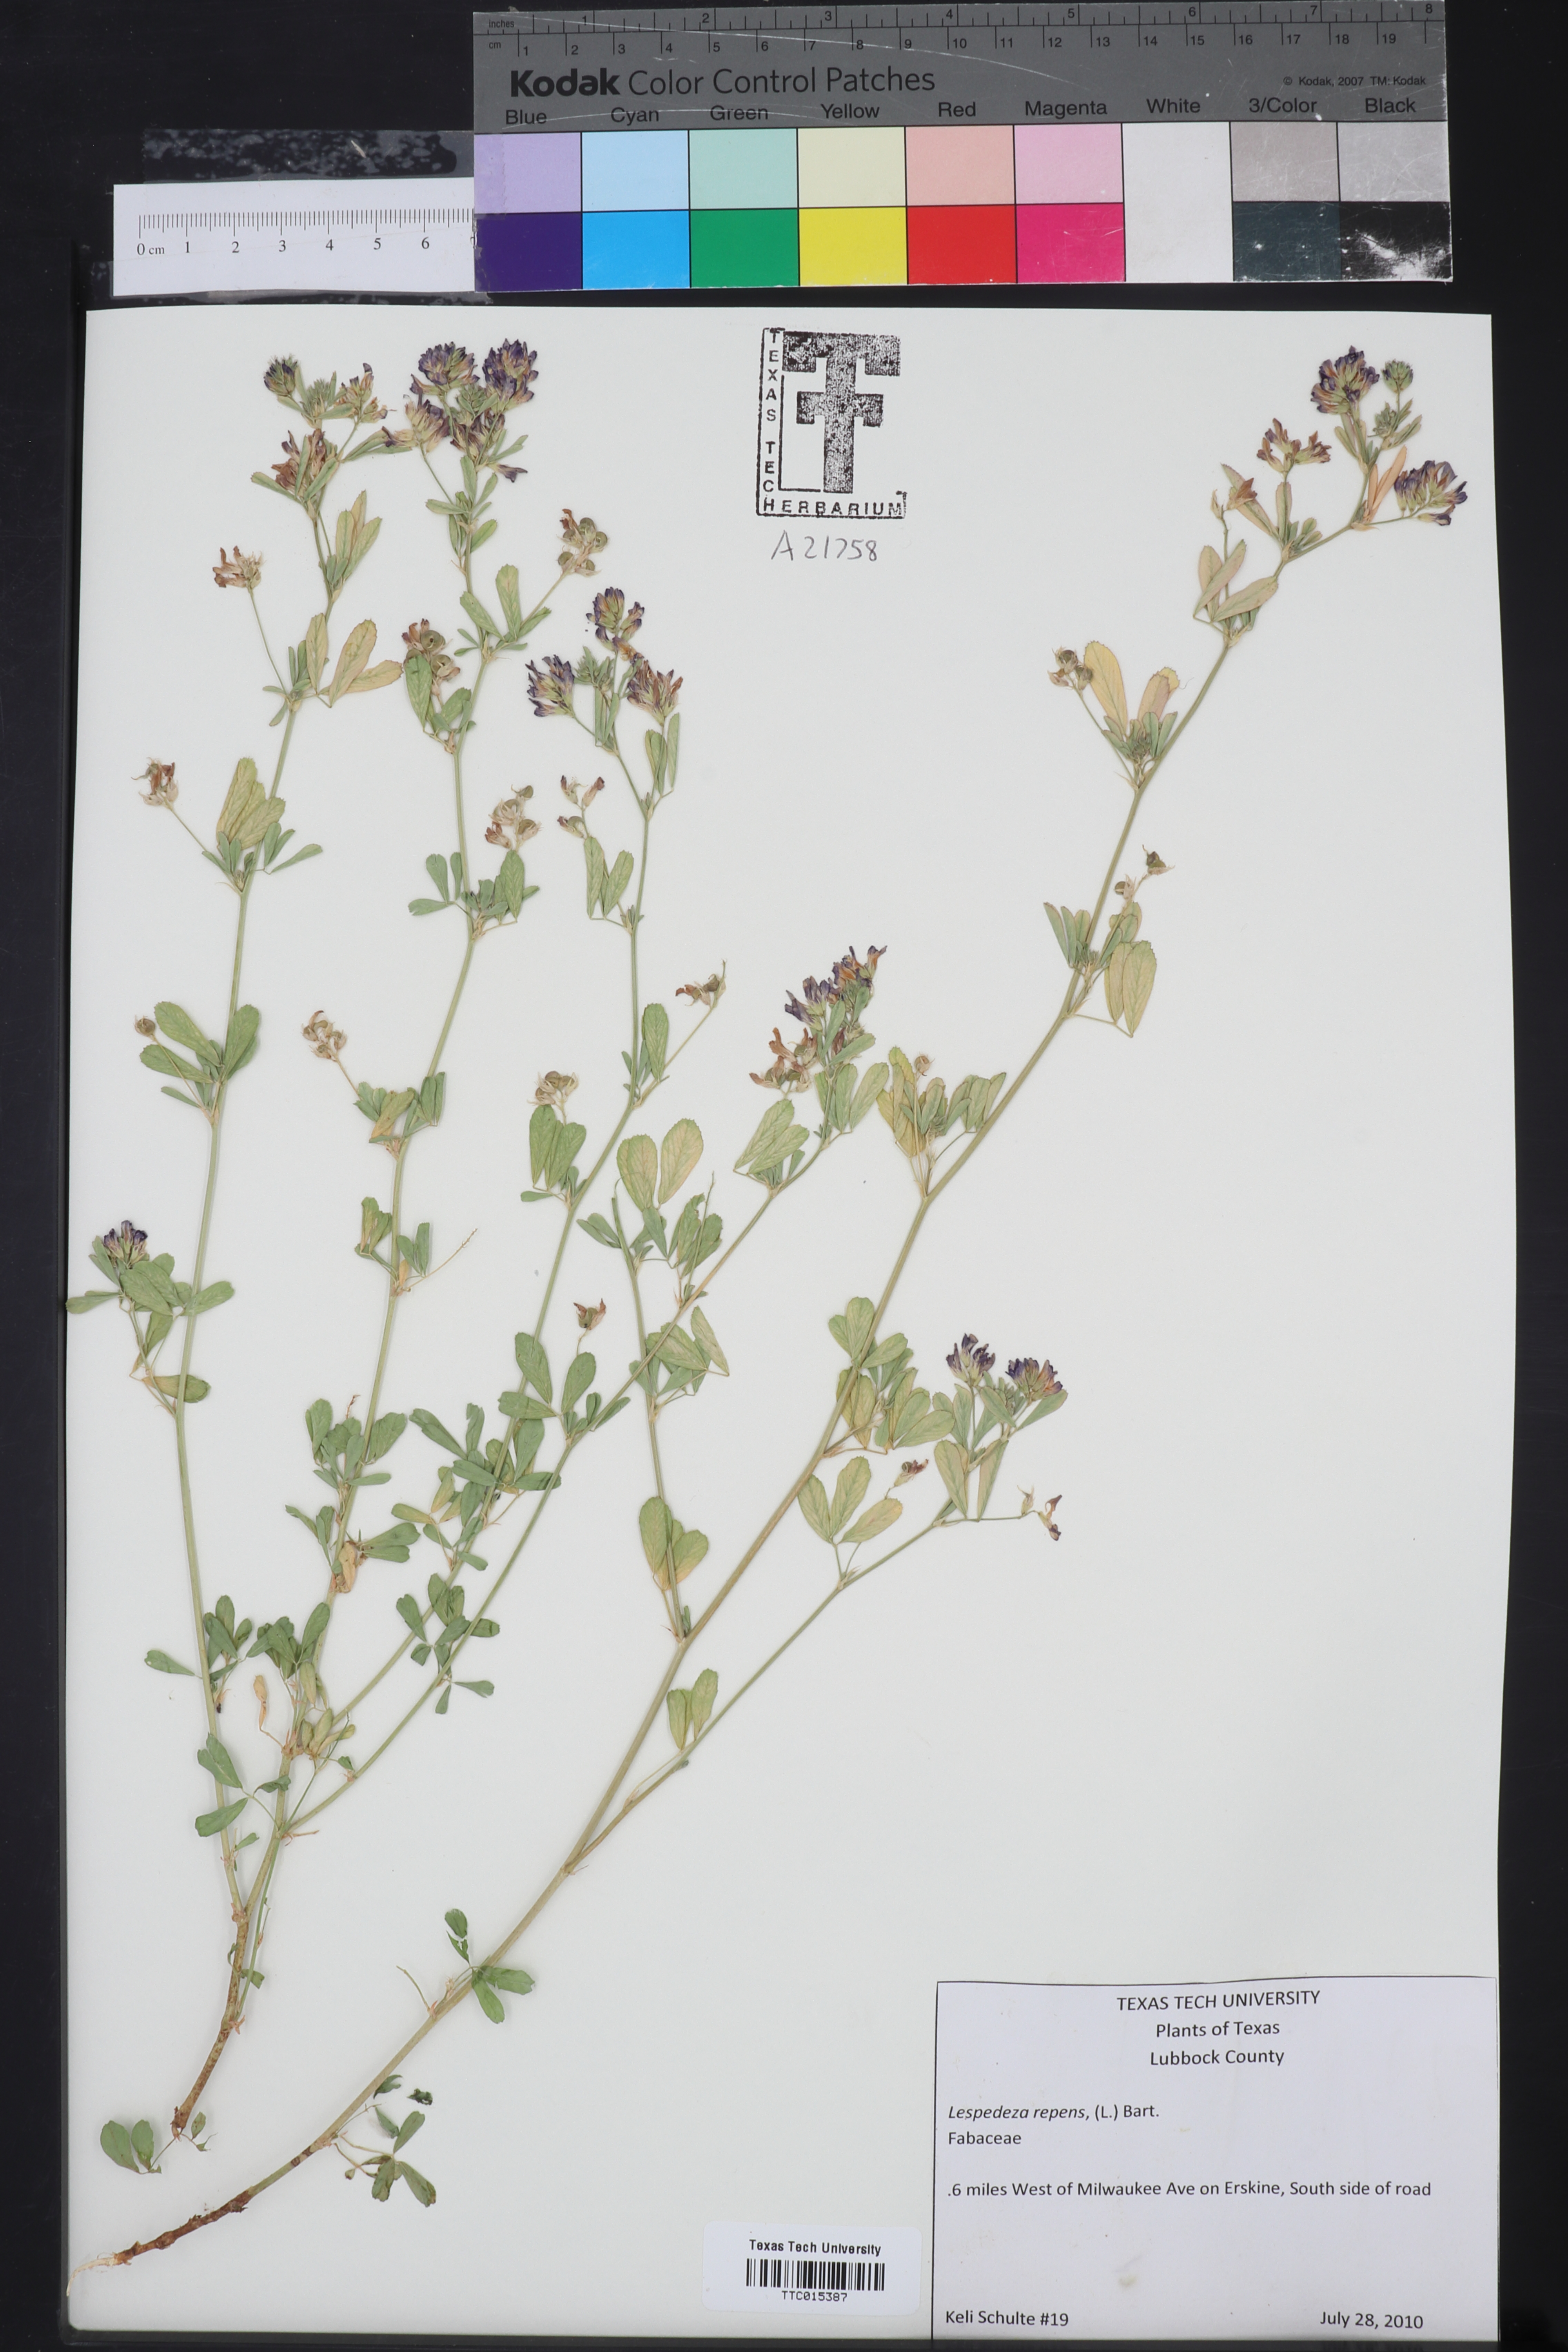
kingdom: Plantae
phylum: Tracheophyta
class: Magnoliopsida
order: Fabales
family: Fabaceae
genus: Lespedeza
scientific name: Lespedeza repens
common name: Creeping bush-clover
